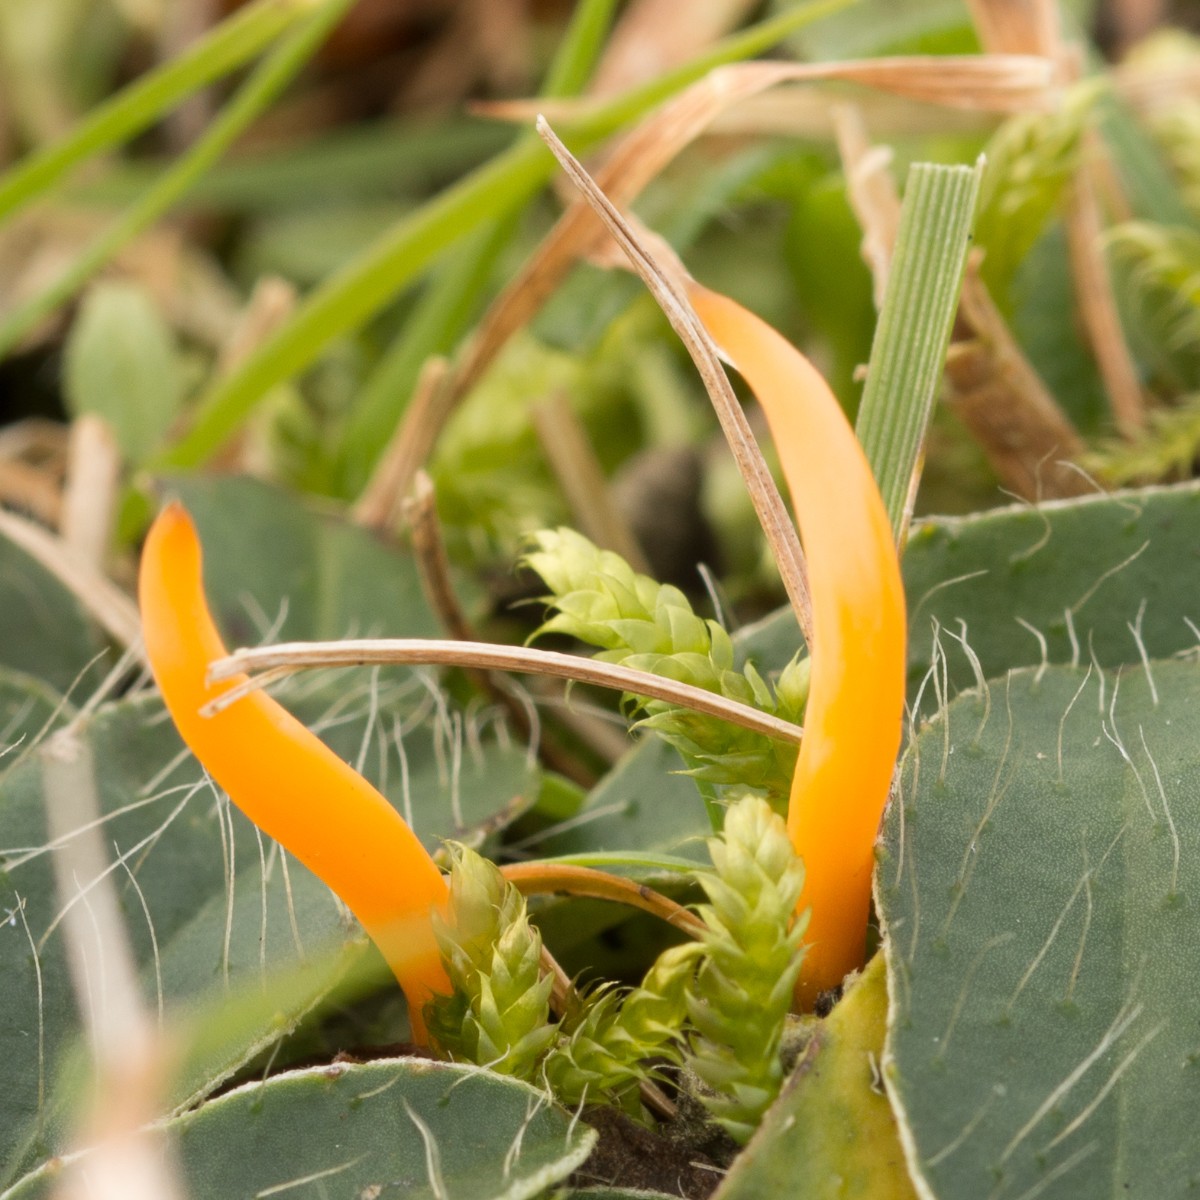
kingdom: Fungi
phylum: Basidiomycota
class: Agaricomycetes
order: Agaricales
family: Clavariaceae
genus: Clavulinopsis
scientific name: Clavulinopsis
